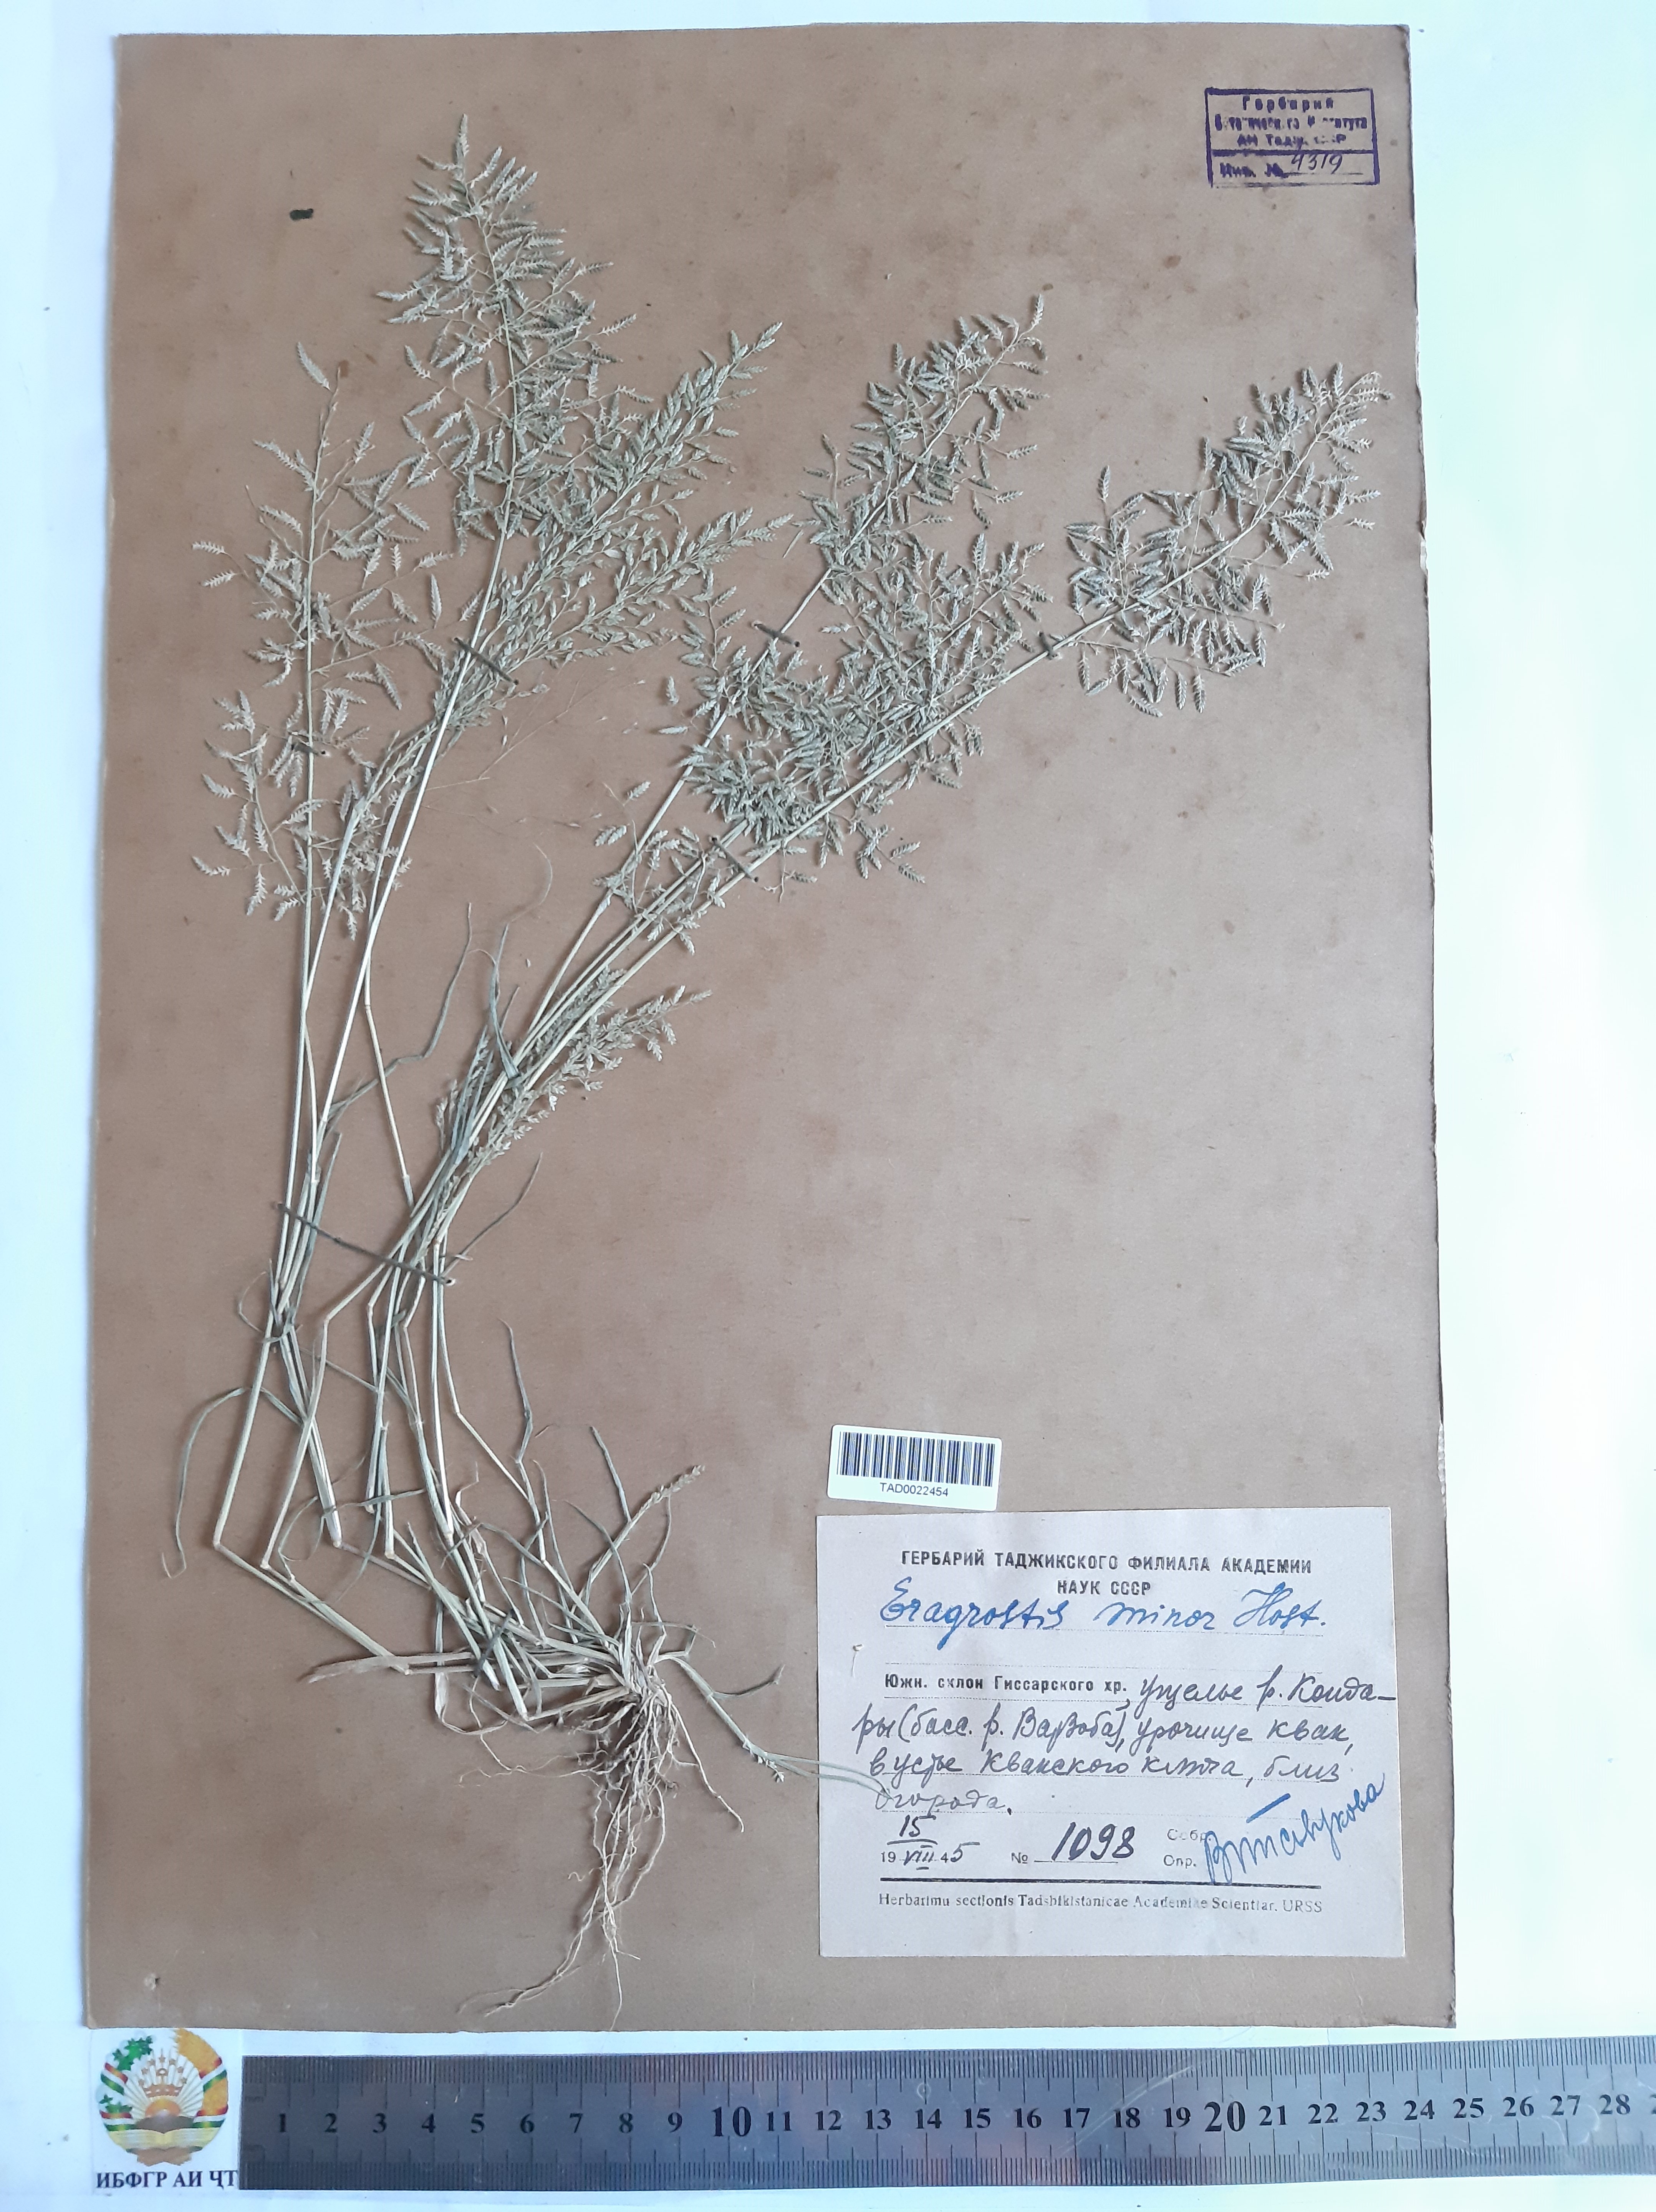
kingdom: Plantae
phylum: Tracheophyta
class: Liliopsida
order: Poales
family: Poaceae
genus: Eragrostis
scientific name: Eragrostis minor
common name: Small love-grass
